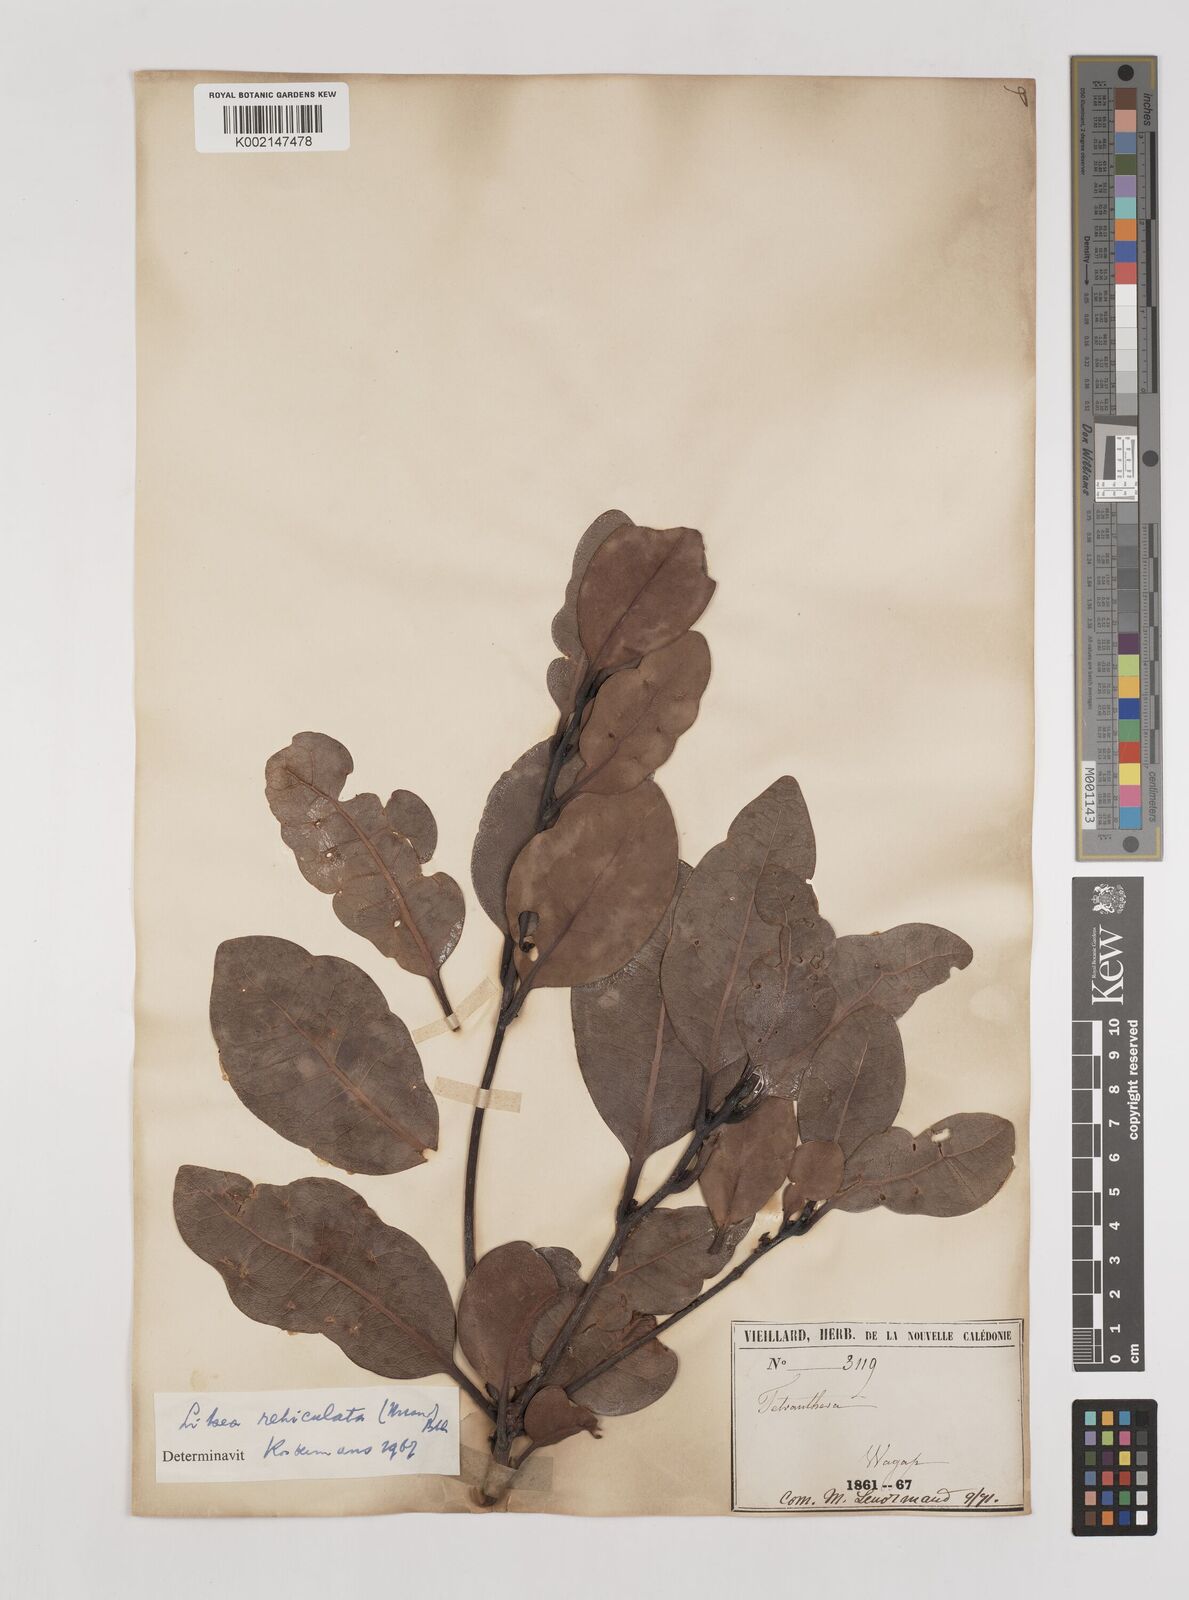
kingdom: Plantae
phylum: Tracheophyta
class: Magnoliopsida
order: Laurales
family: Lauraceae
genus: Litsea
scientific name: Litsea reticulata
